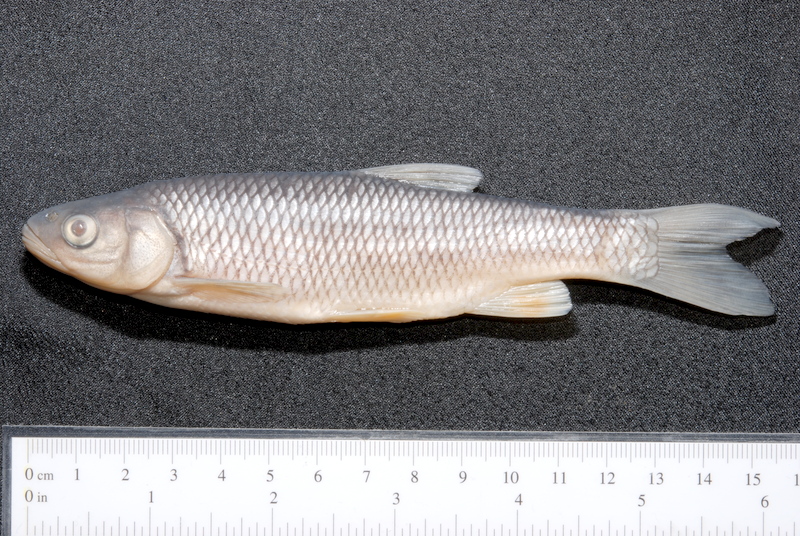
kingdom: Animalia
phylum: Chordata
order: Cypriniformes
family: Cyprinidae
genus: Squalius
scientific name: Squalius cephalus
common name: Chub
